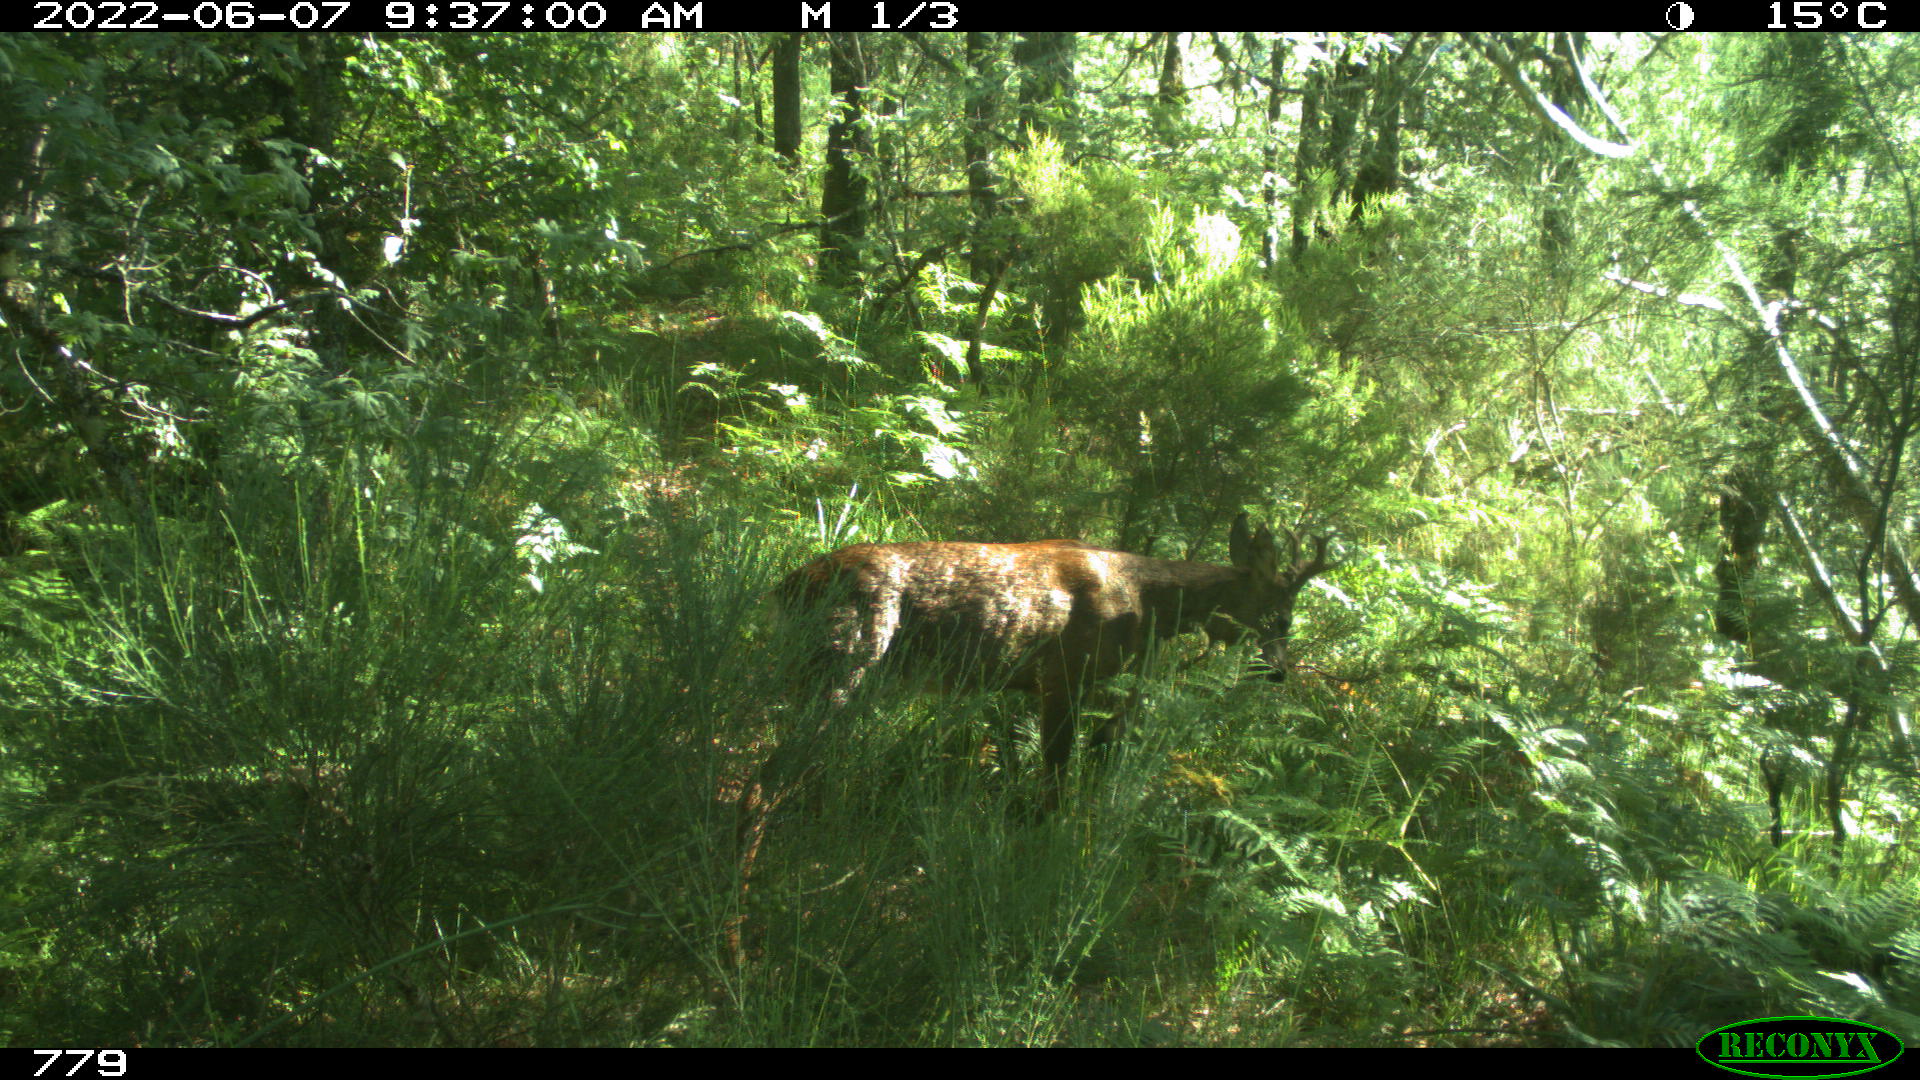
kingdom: Animalia
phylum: Chordata
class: Mammalia
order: Artiodactyla
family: Cervidae
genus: Capreolus
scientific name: Capreolus capreolus
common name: Western roe deer
